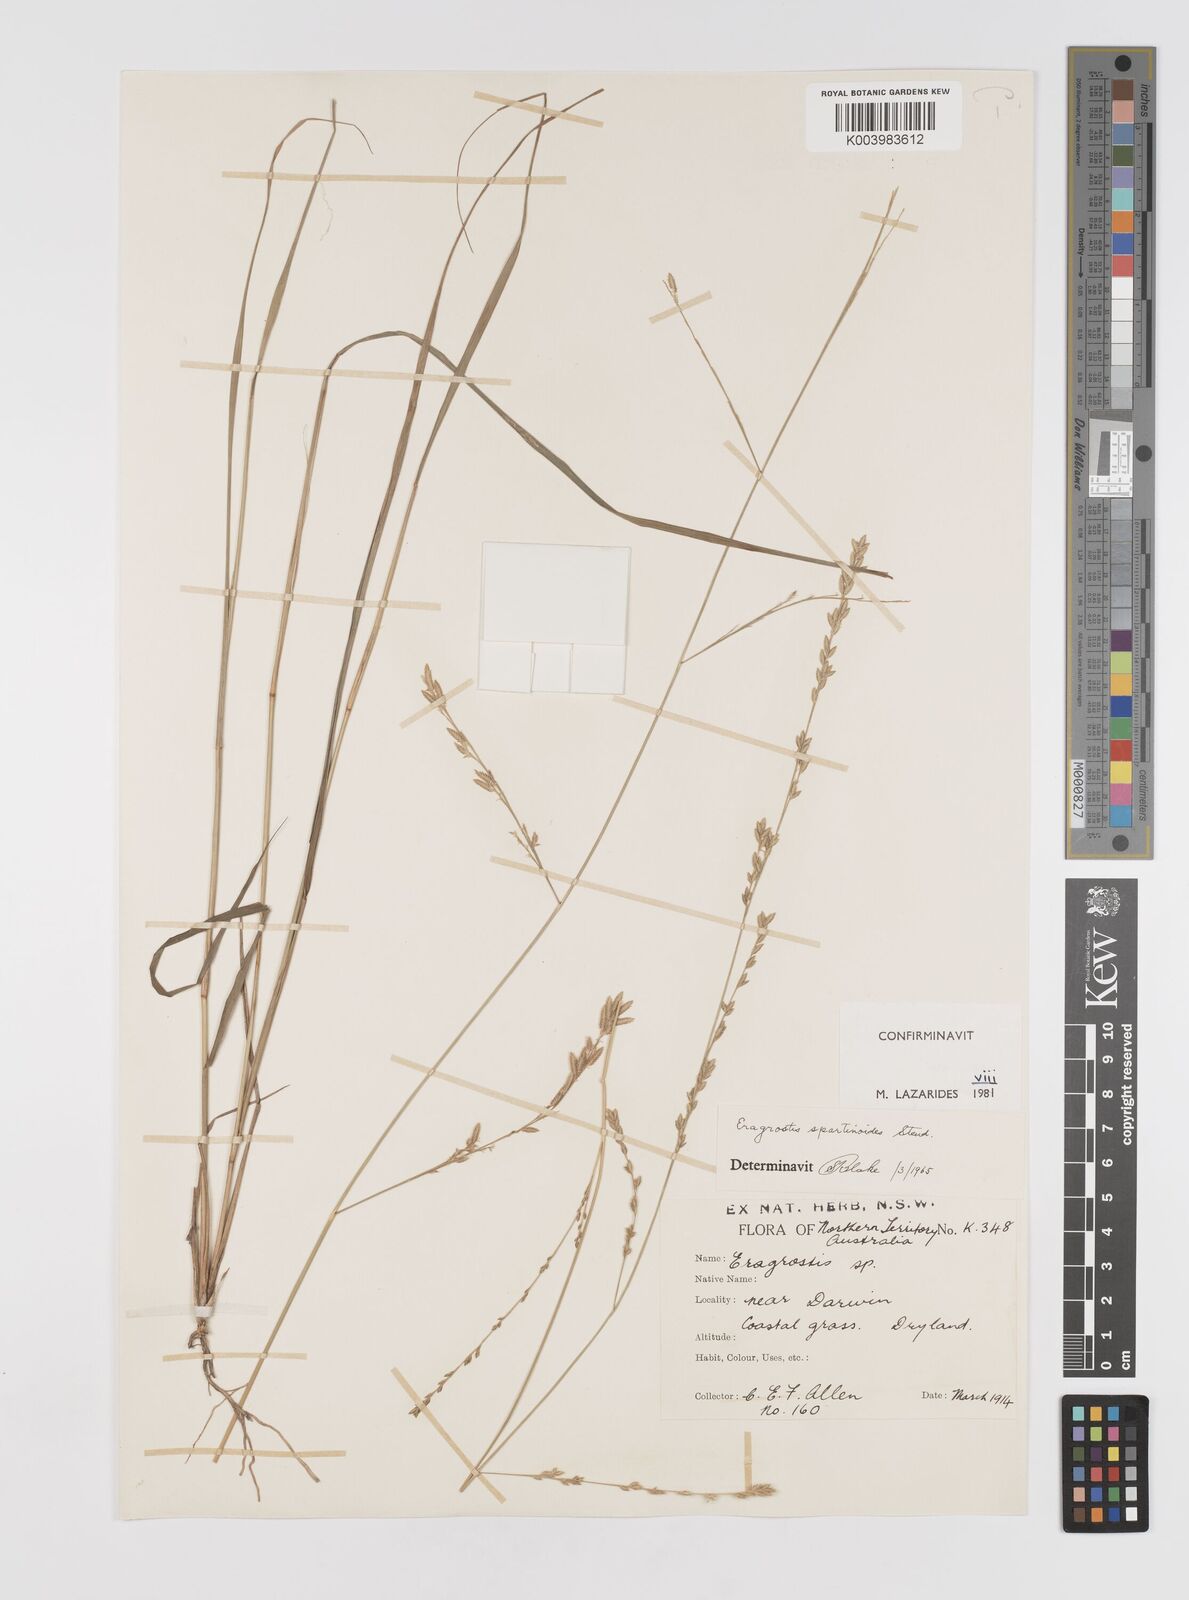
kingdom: Plantae
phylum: Tracheophyta
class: Liliopsida
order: Poales
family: Poaceae
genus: Eragrostis
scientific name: Eragrostis brownii
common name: Lovegrass
